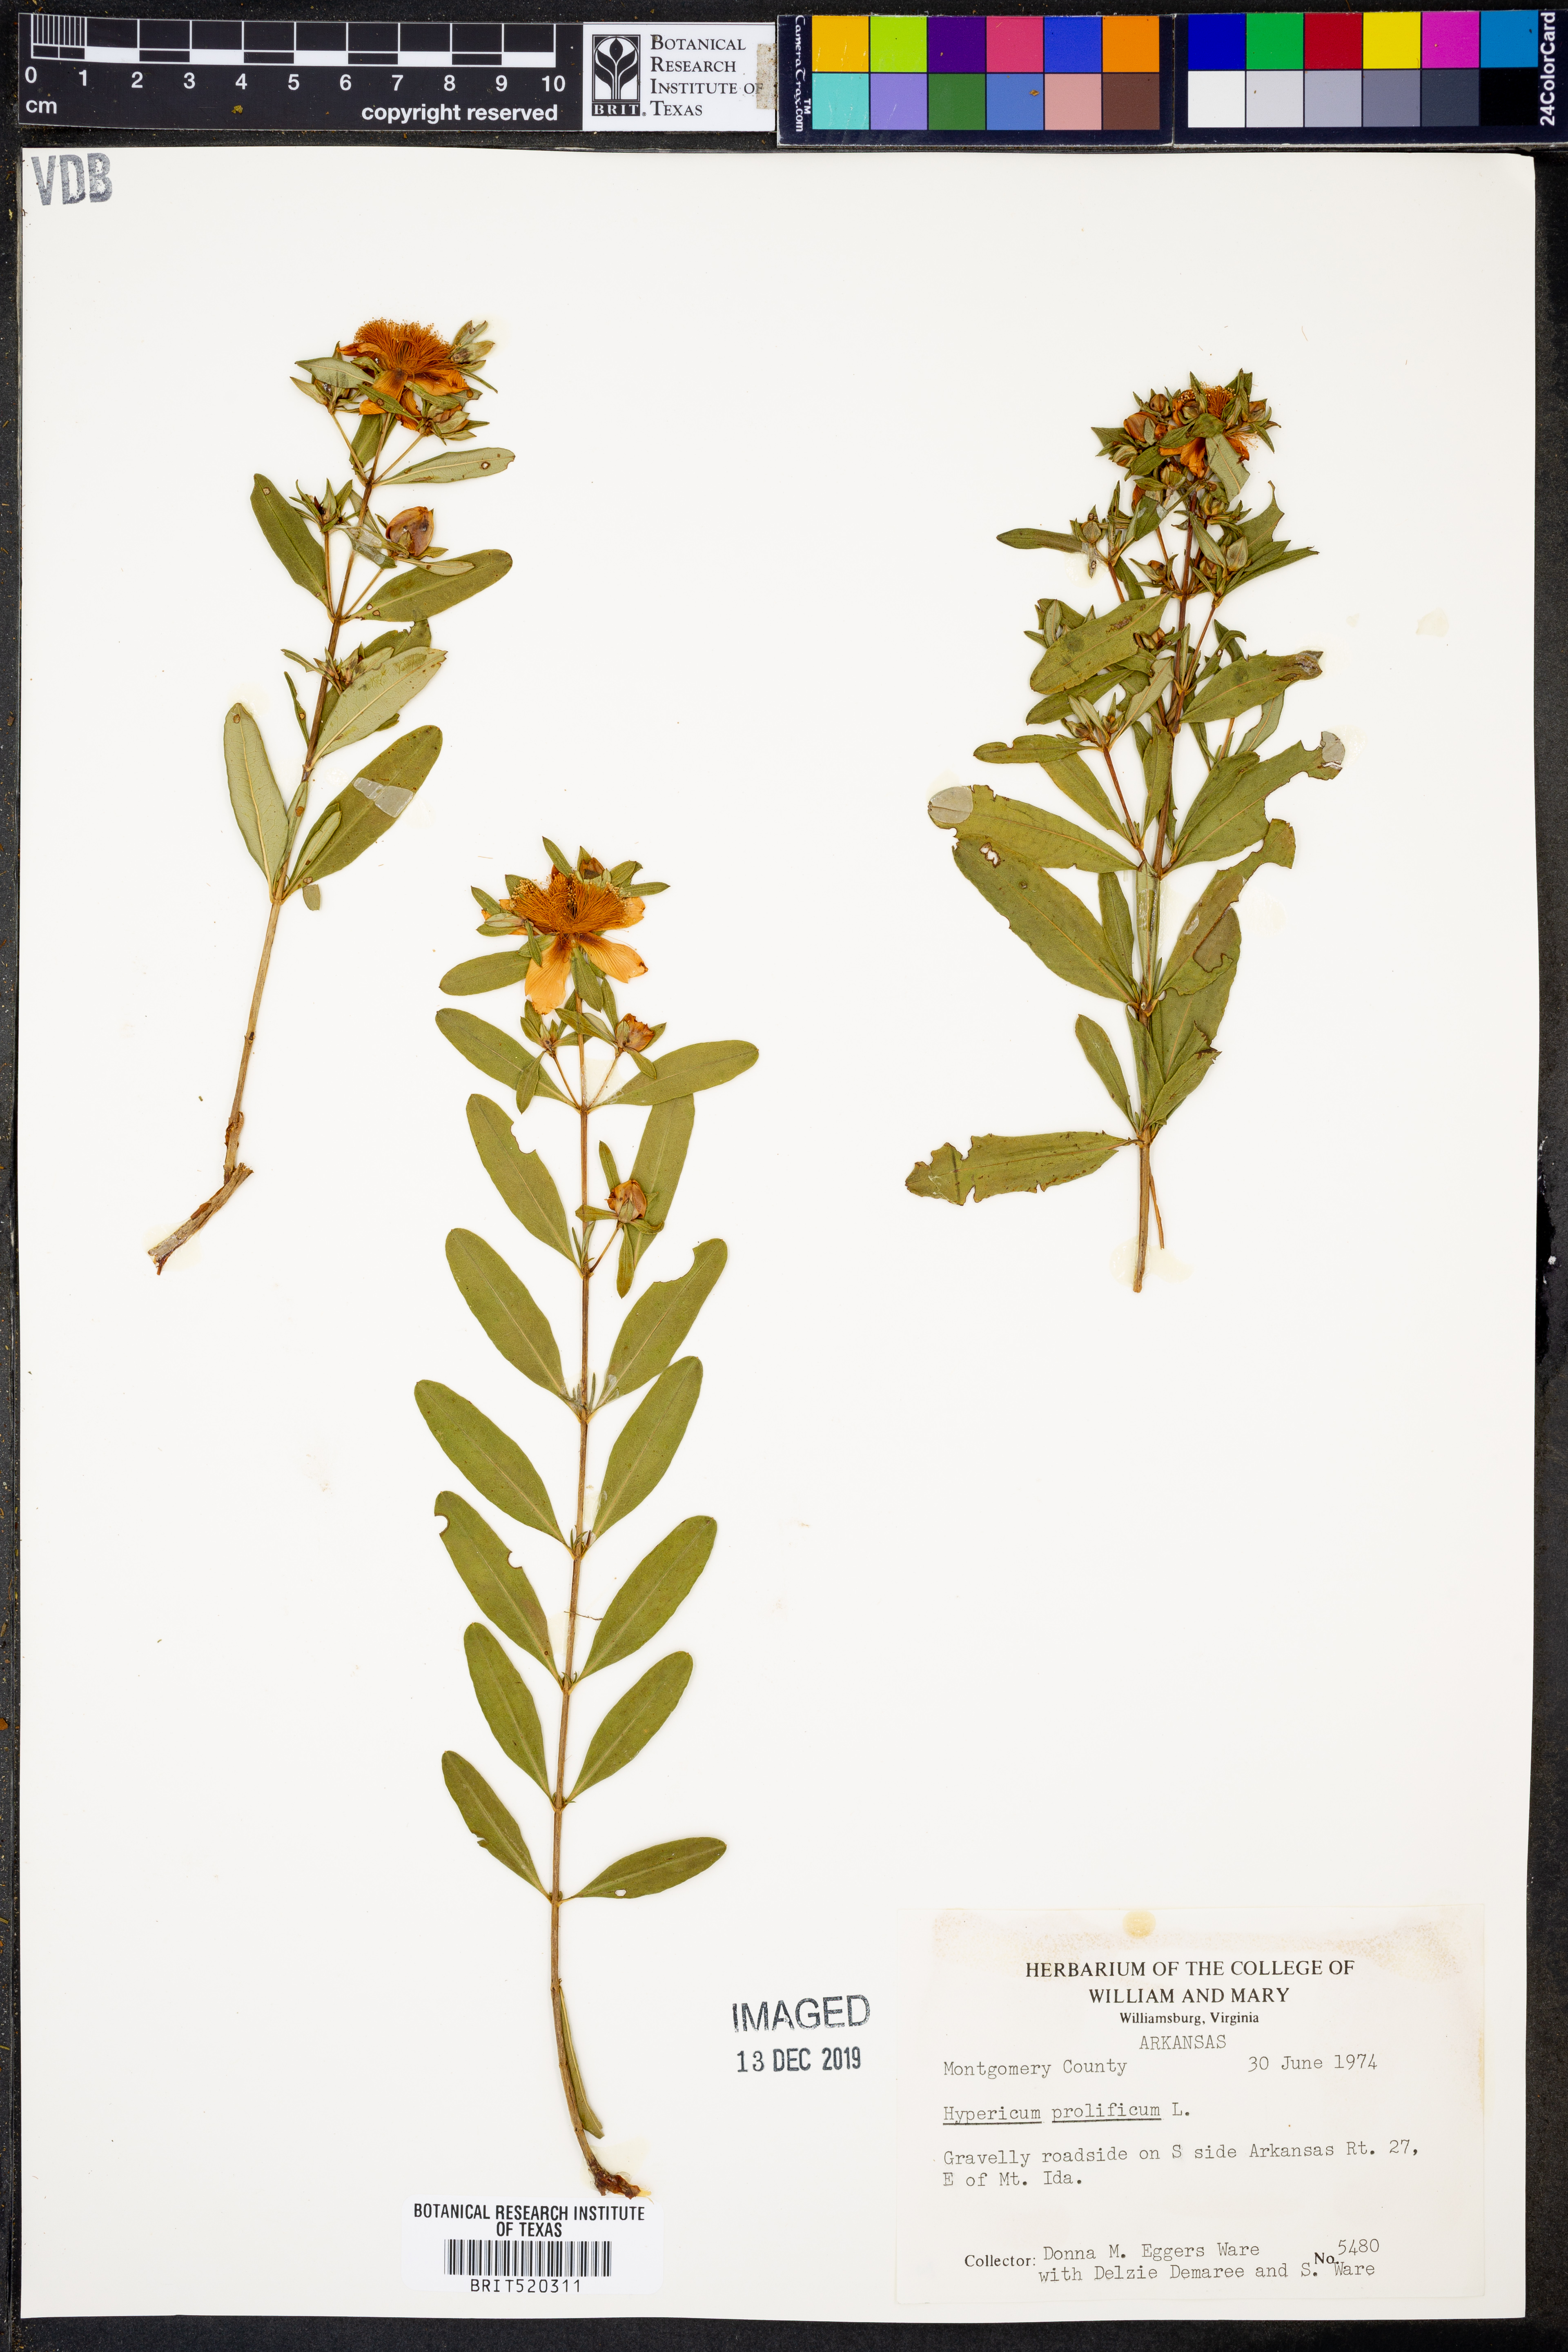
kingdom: Plantae
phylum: Tracheophyta
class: Magnoliopsida
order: Malpighiales
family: Hypericaceae
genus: Hypericum
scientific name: Hypericum prolificum
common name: Shrubby st. john's-wort
